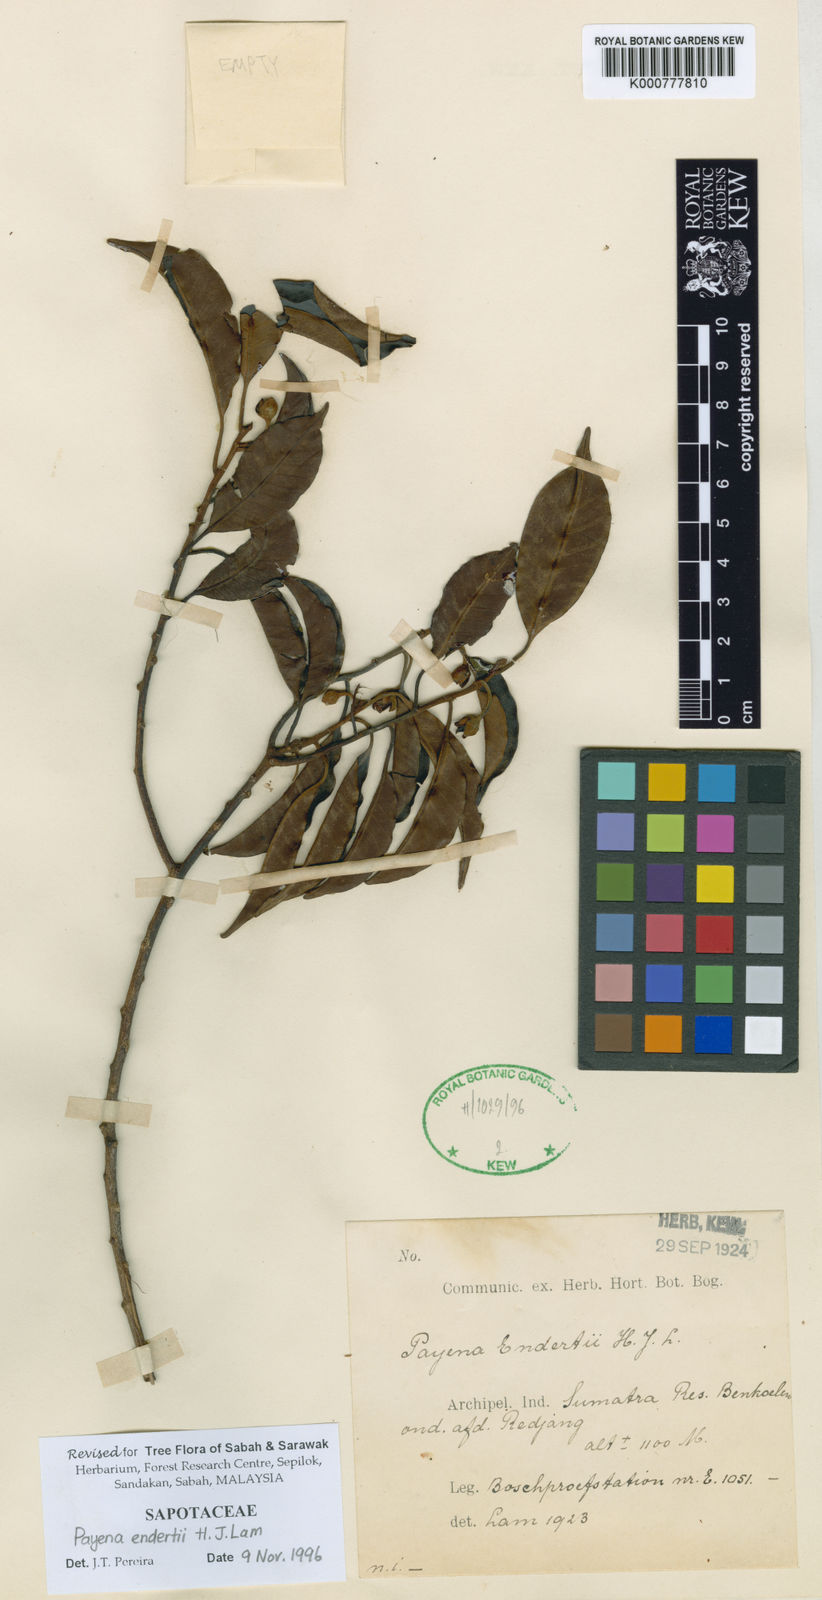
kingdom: Plantae
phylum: Tracheophyta
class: Magnoliopsida
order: Ericales
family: Sapotaceae
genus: Payena
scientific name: Payena endertii
